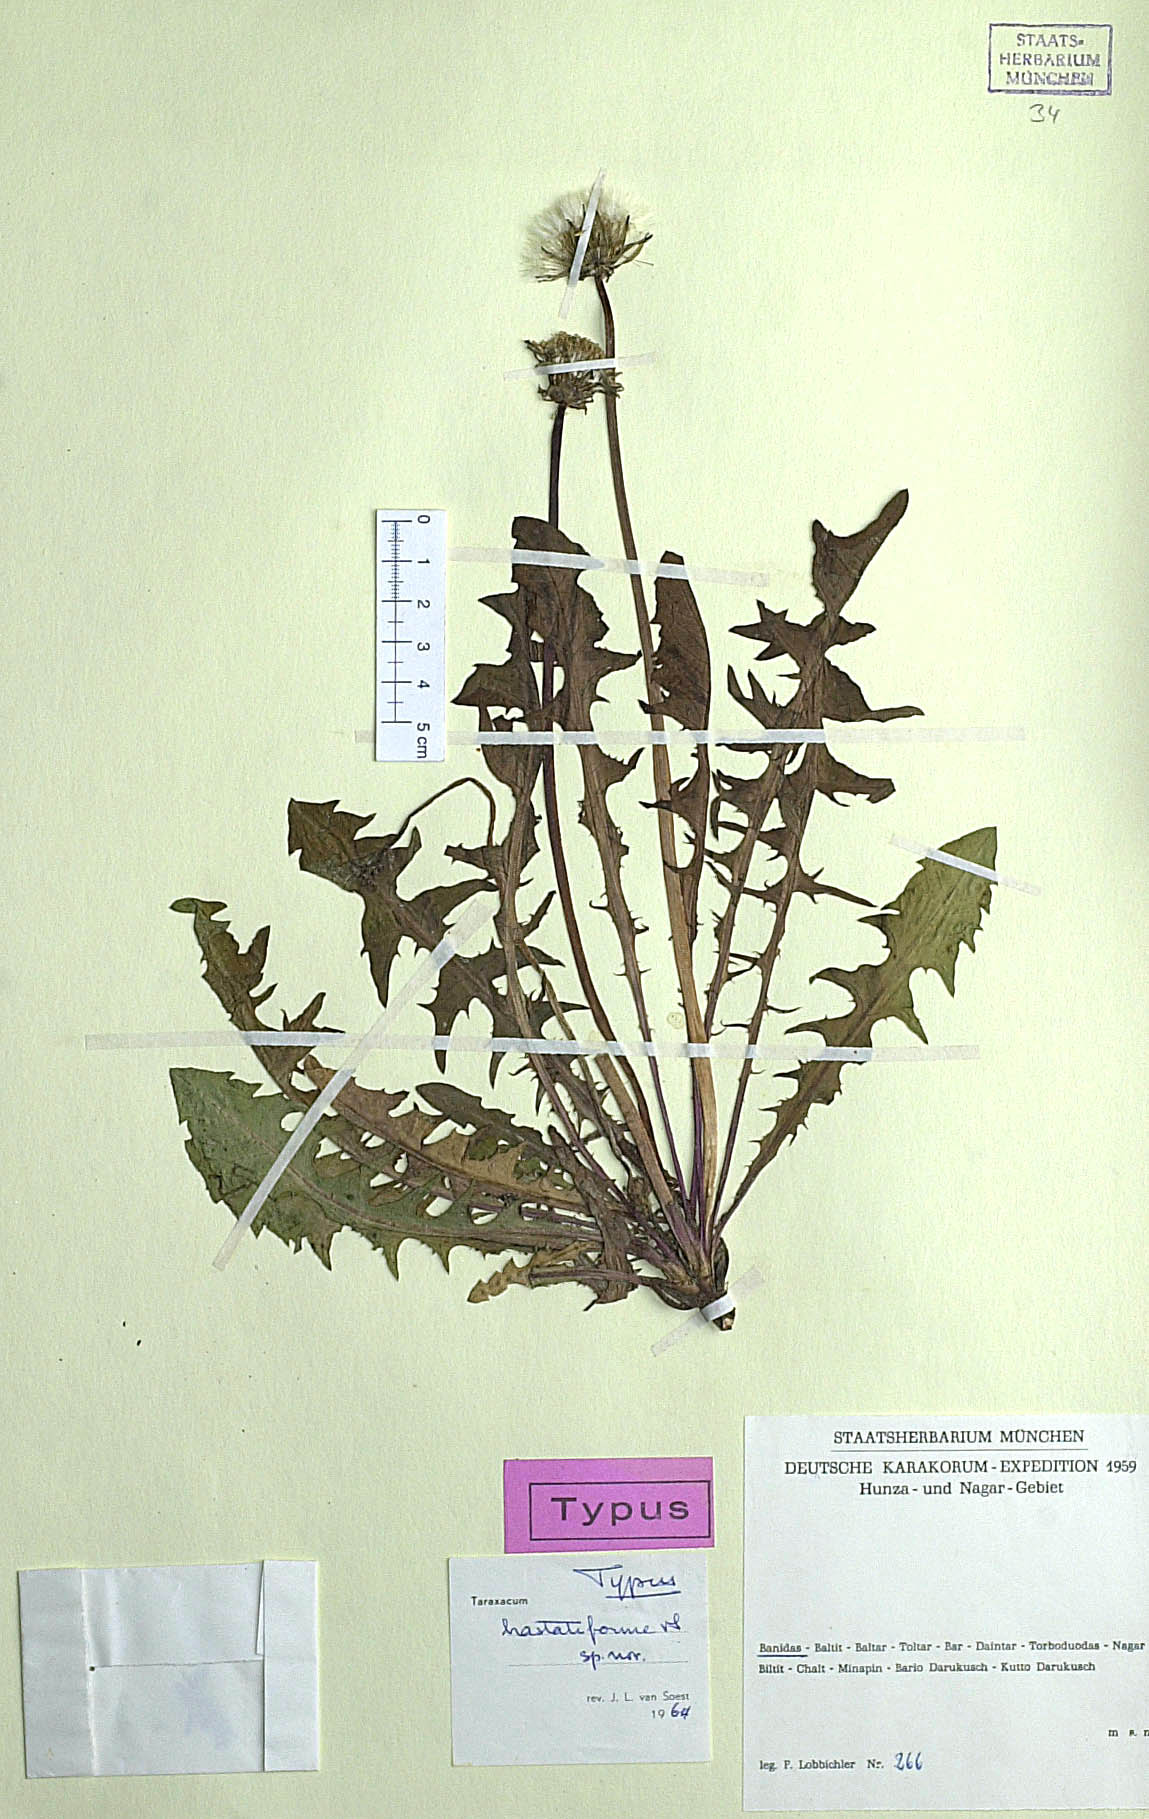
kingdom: Plantae
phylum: Tracheophyta
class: Magnoliopsida
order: Asterales
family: Asteraceae
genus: Taraxacum
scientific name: Taraxacum hastatiforme
